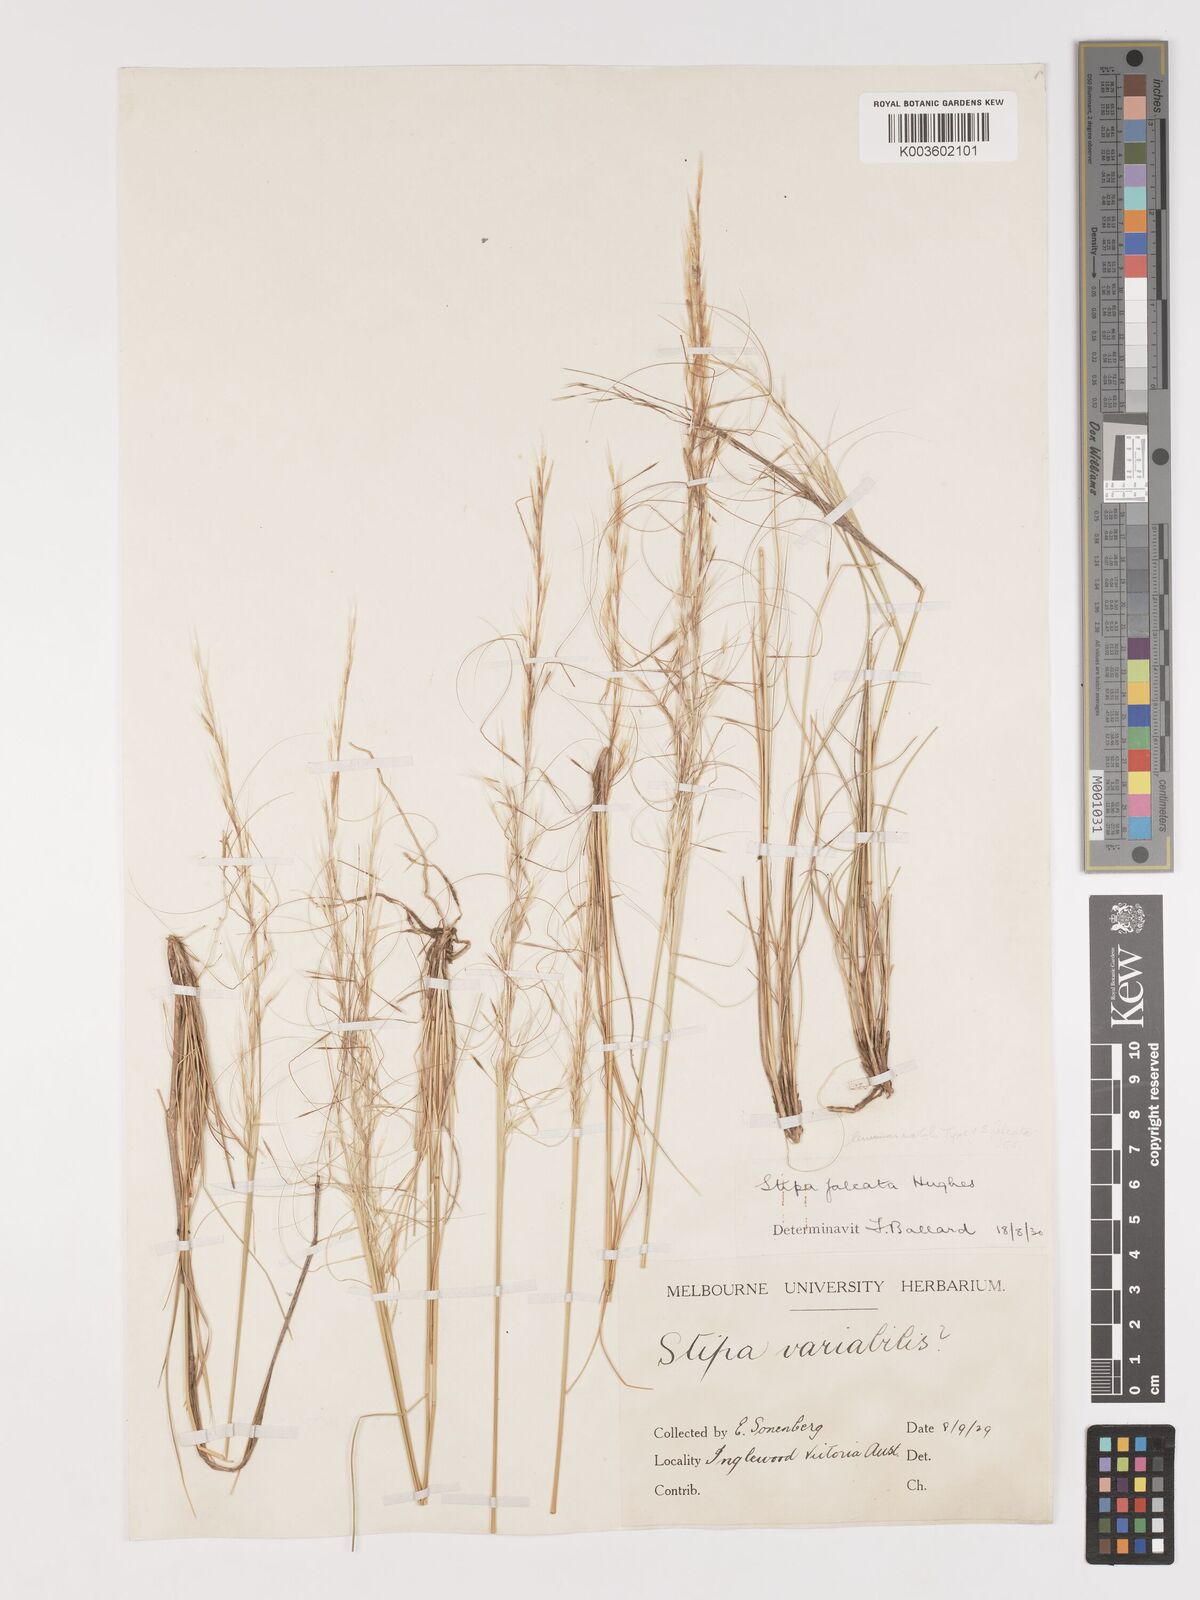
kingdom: Plantae
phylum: Tracheophyta
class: Liliopsida
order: Poales
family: Poaceae
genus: Austrostipa
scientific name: Austrostipa scabra
